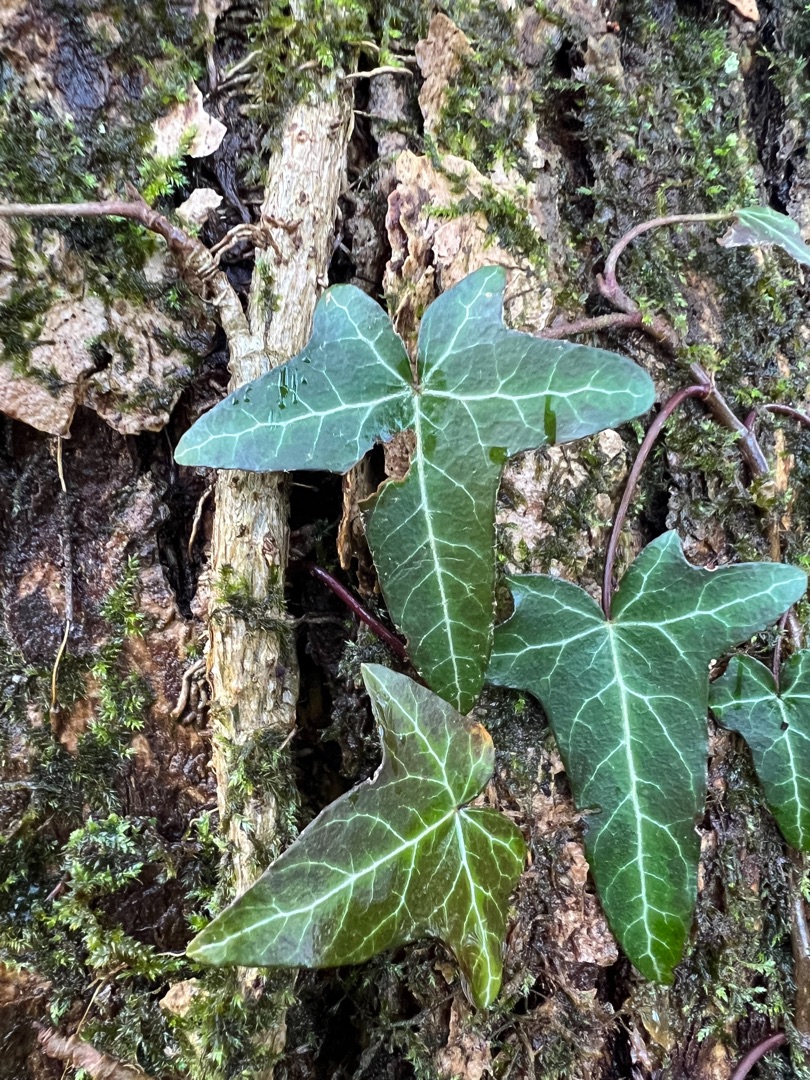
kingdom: Plantae
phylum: Tracheophyta
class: Magnoliopsida
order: Apiales
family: Araliaceae
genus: Hedera
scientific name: Hedera helix
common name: Vedbend
